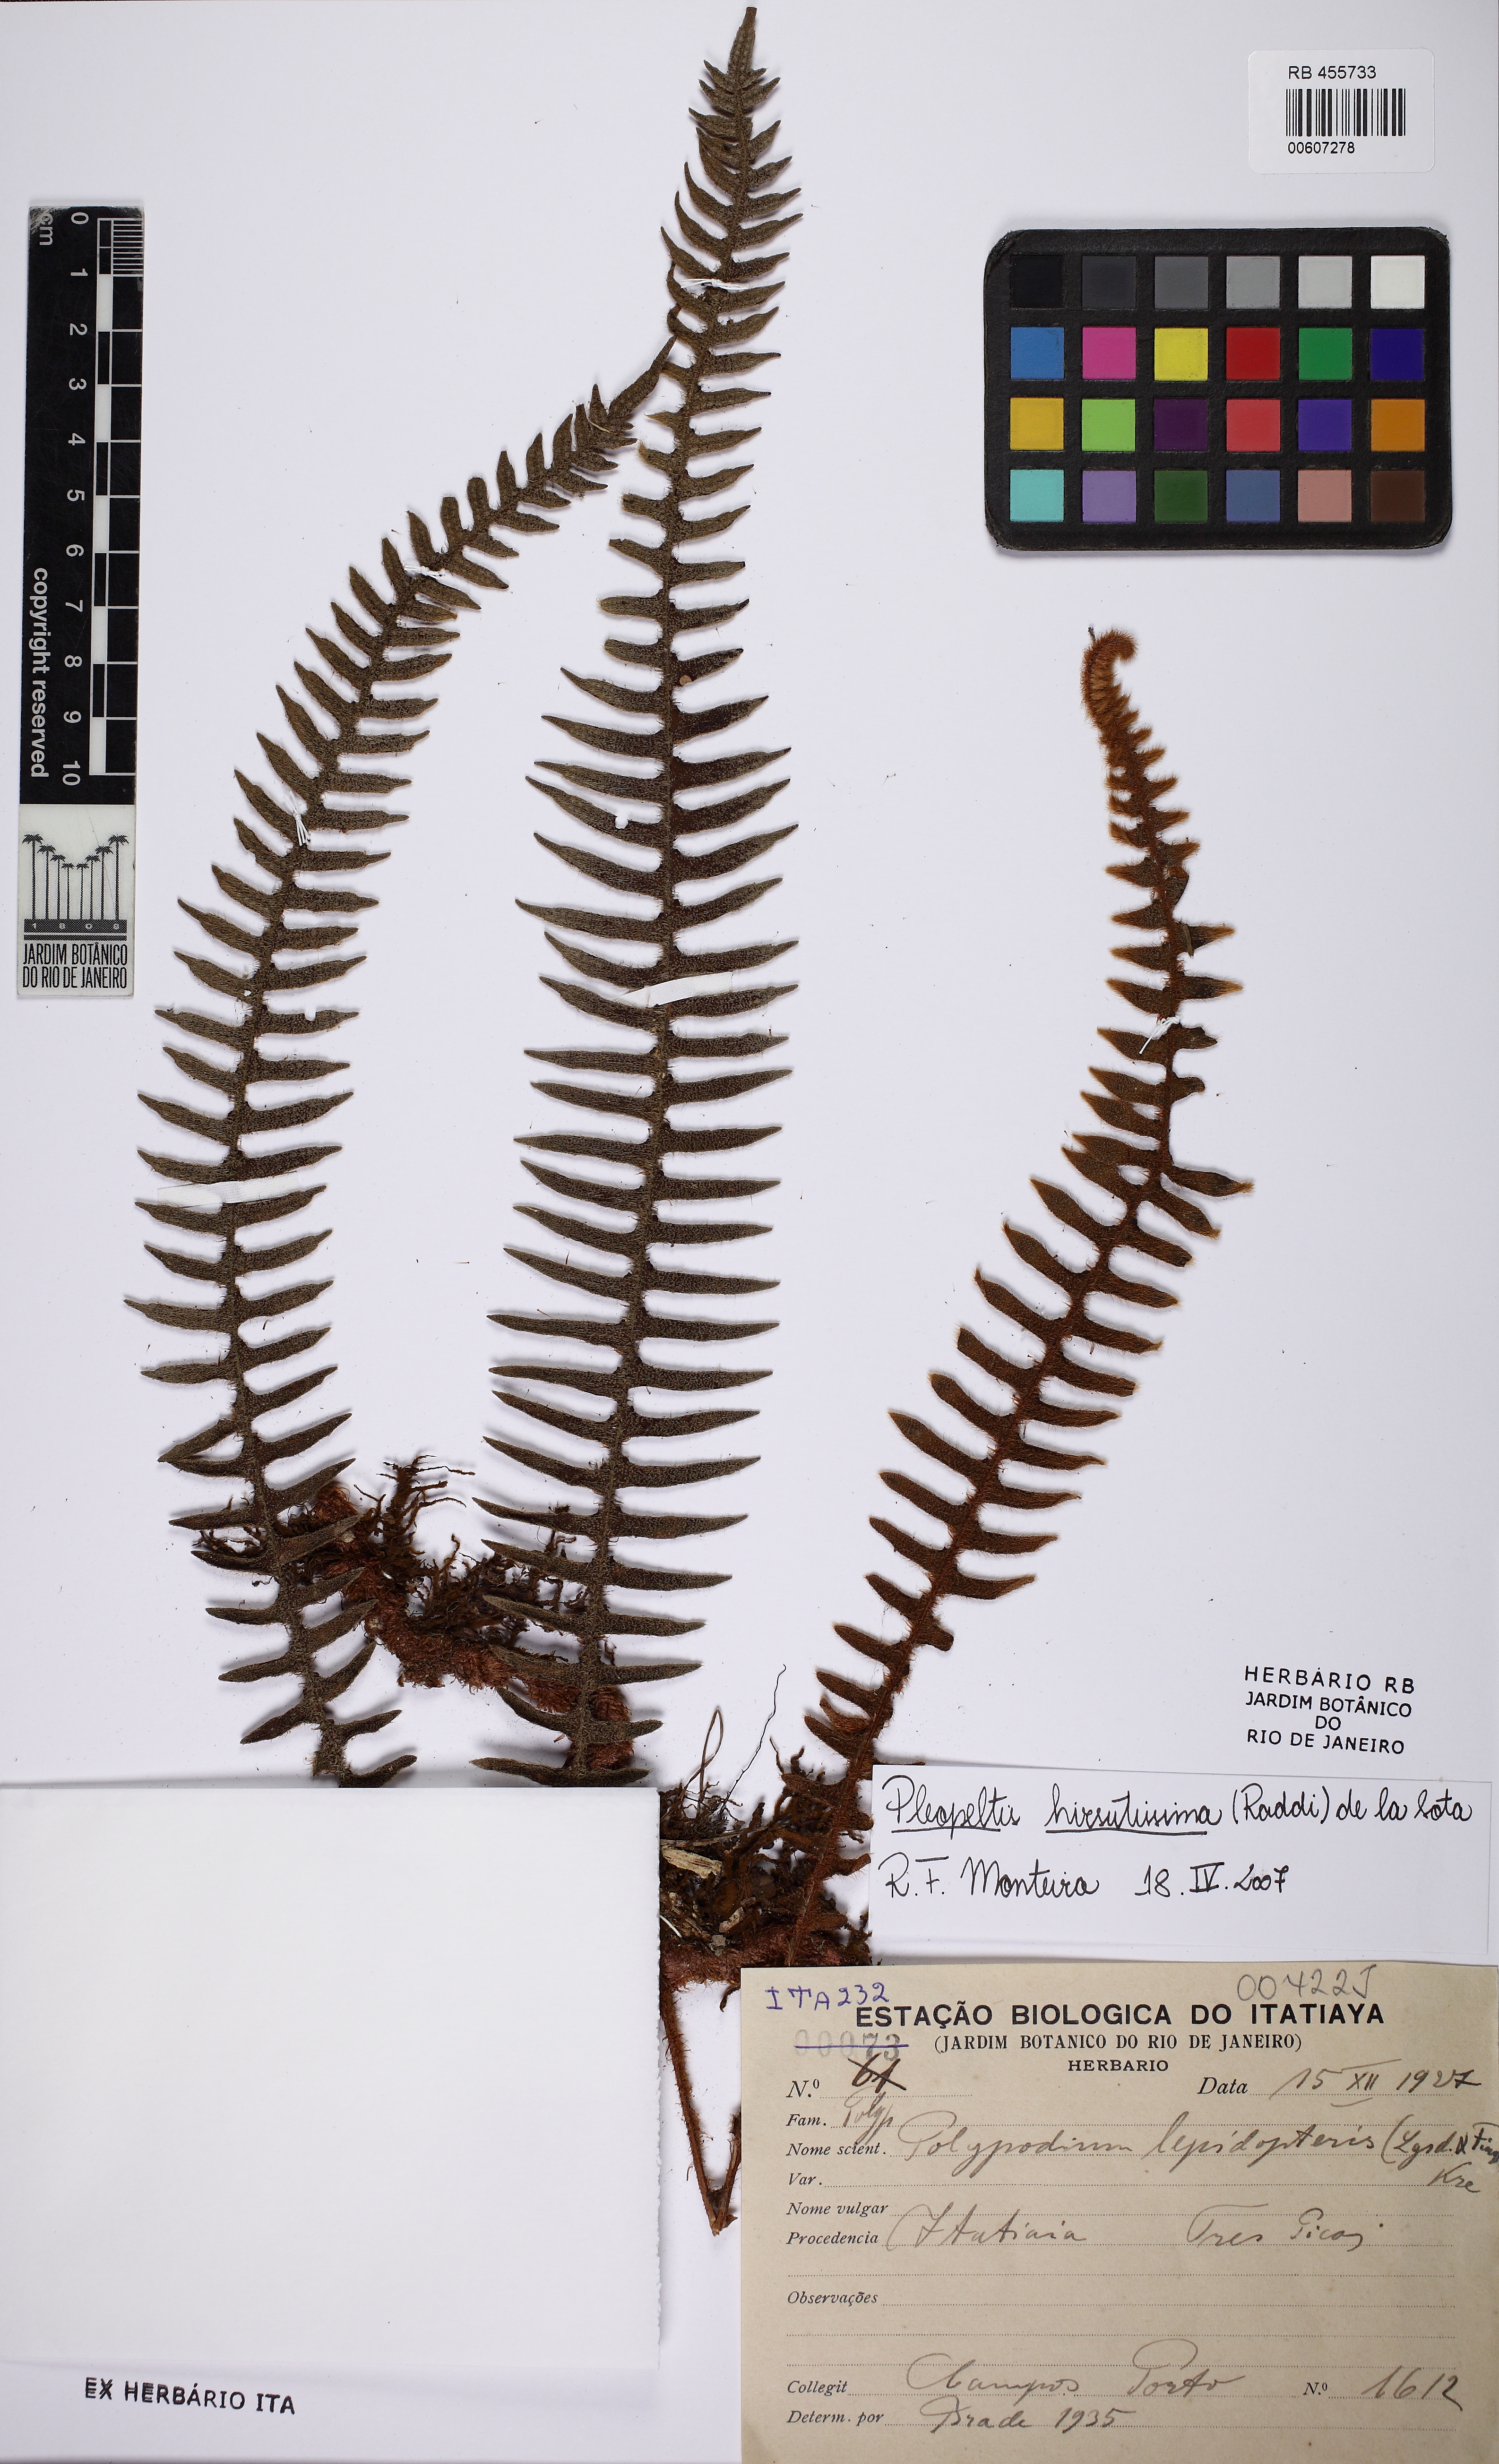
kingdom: Plantae
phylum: Tracheophyta
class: Polypodiopsida
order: Polypodiales
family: Polypodiaceae
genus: Pleopeltis
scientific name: Pleopeltis hirsutissima
